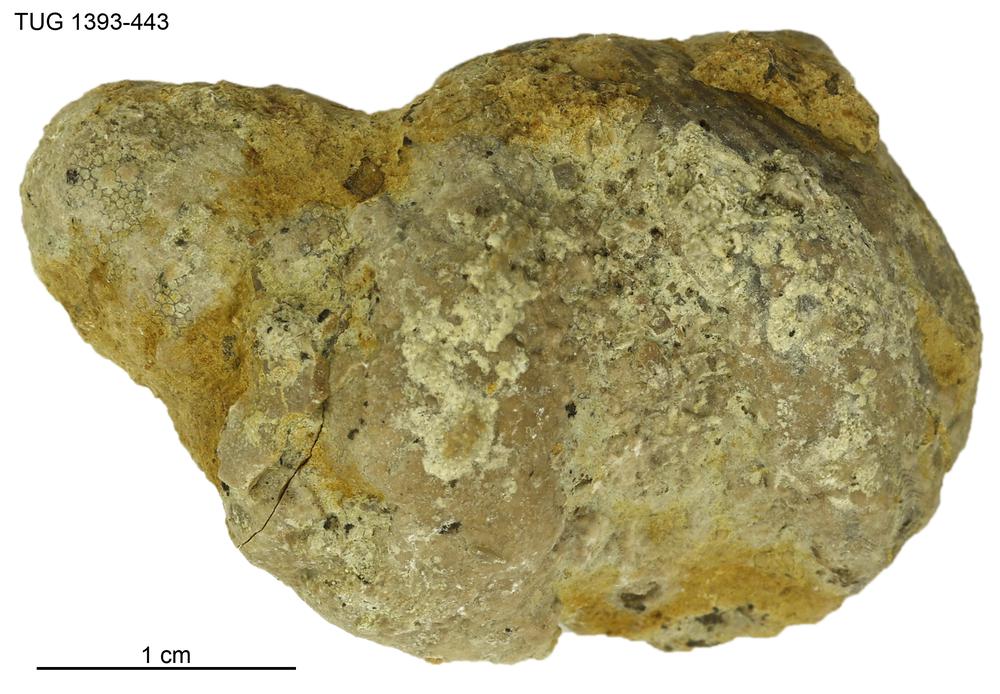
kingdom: Animalia
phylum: Bryozoa
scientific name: Bryozoa
